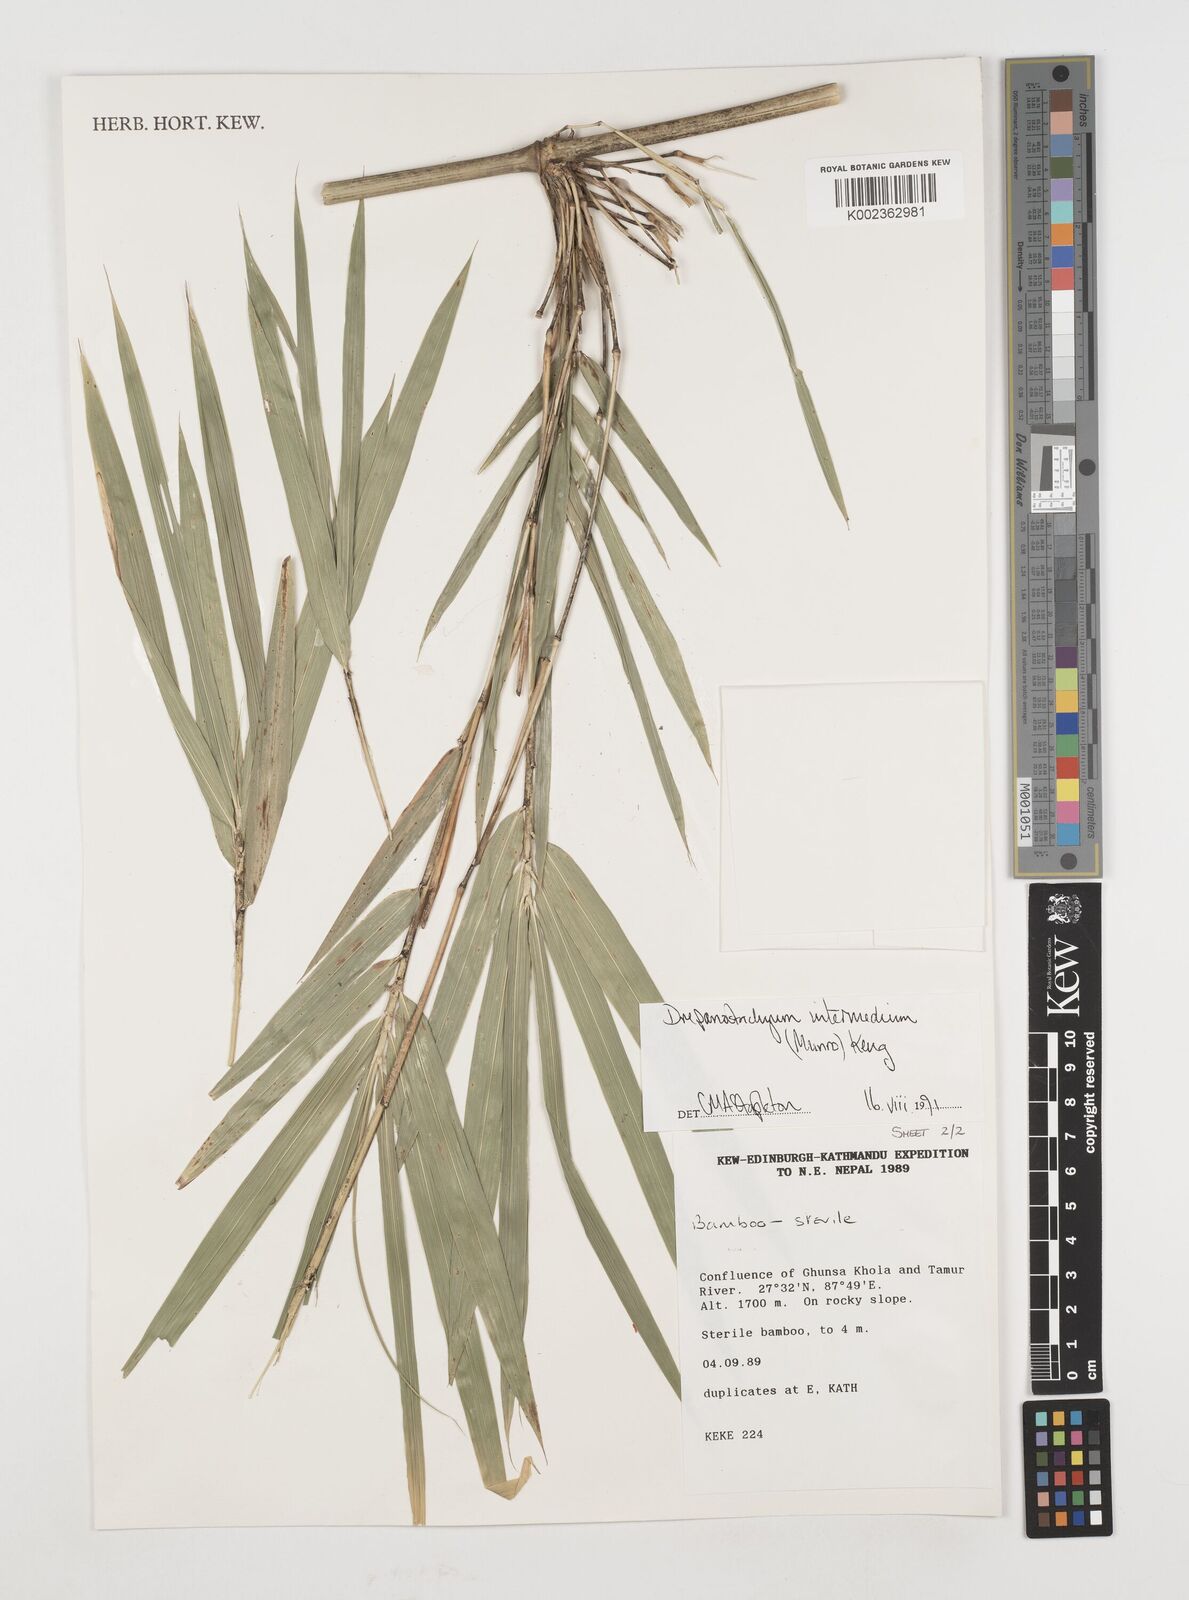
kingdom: Plantae
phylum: Tracheophyta
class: Liliopsida
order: Poales
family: Poaceae
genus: Drepanostachyum
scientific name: Drepanostachyum intermedium
